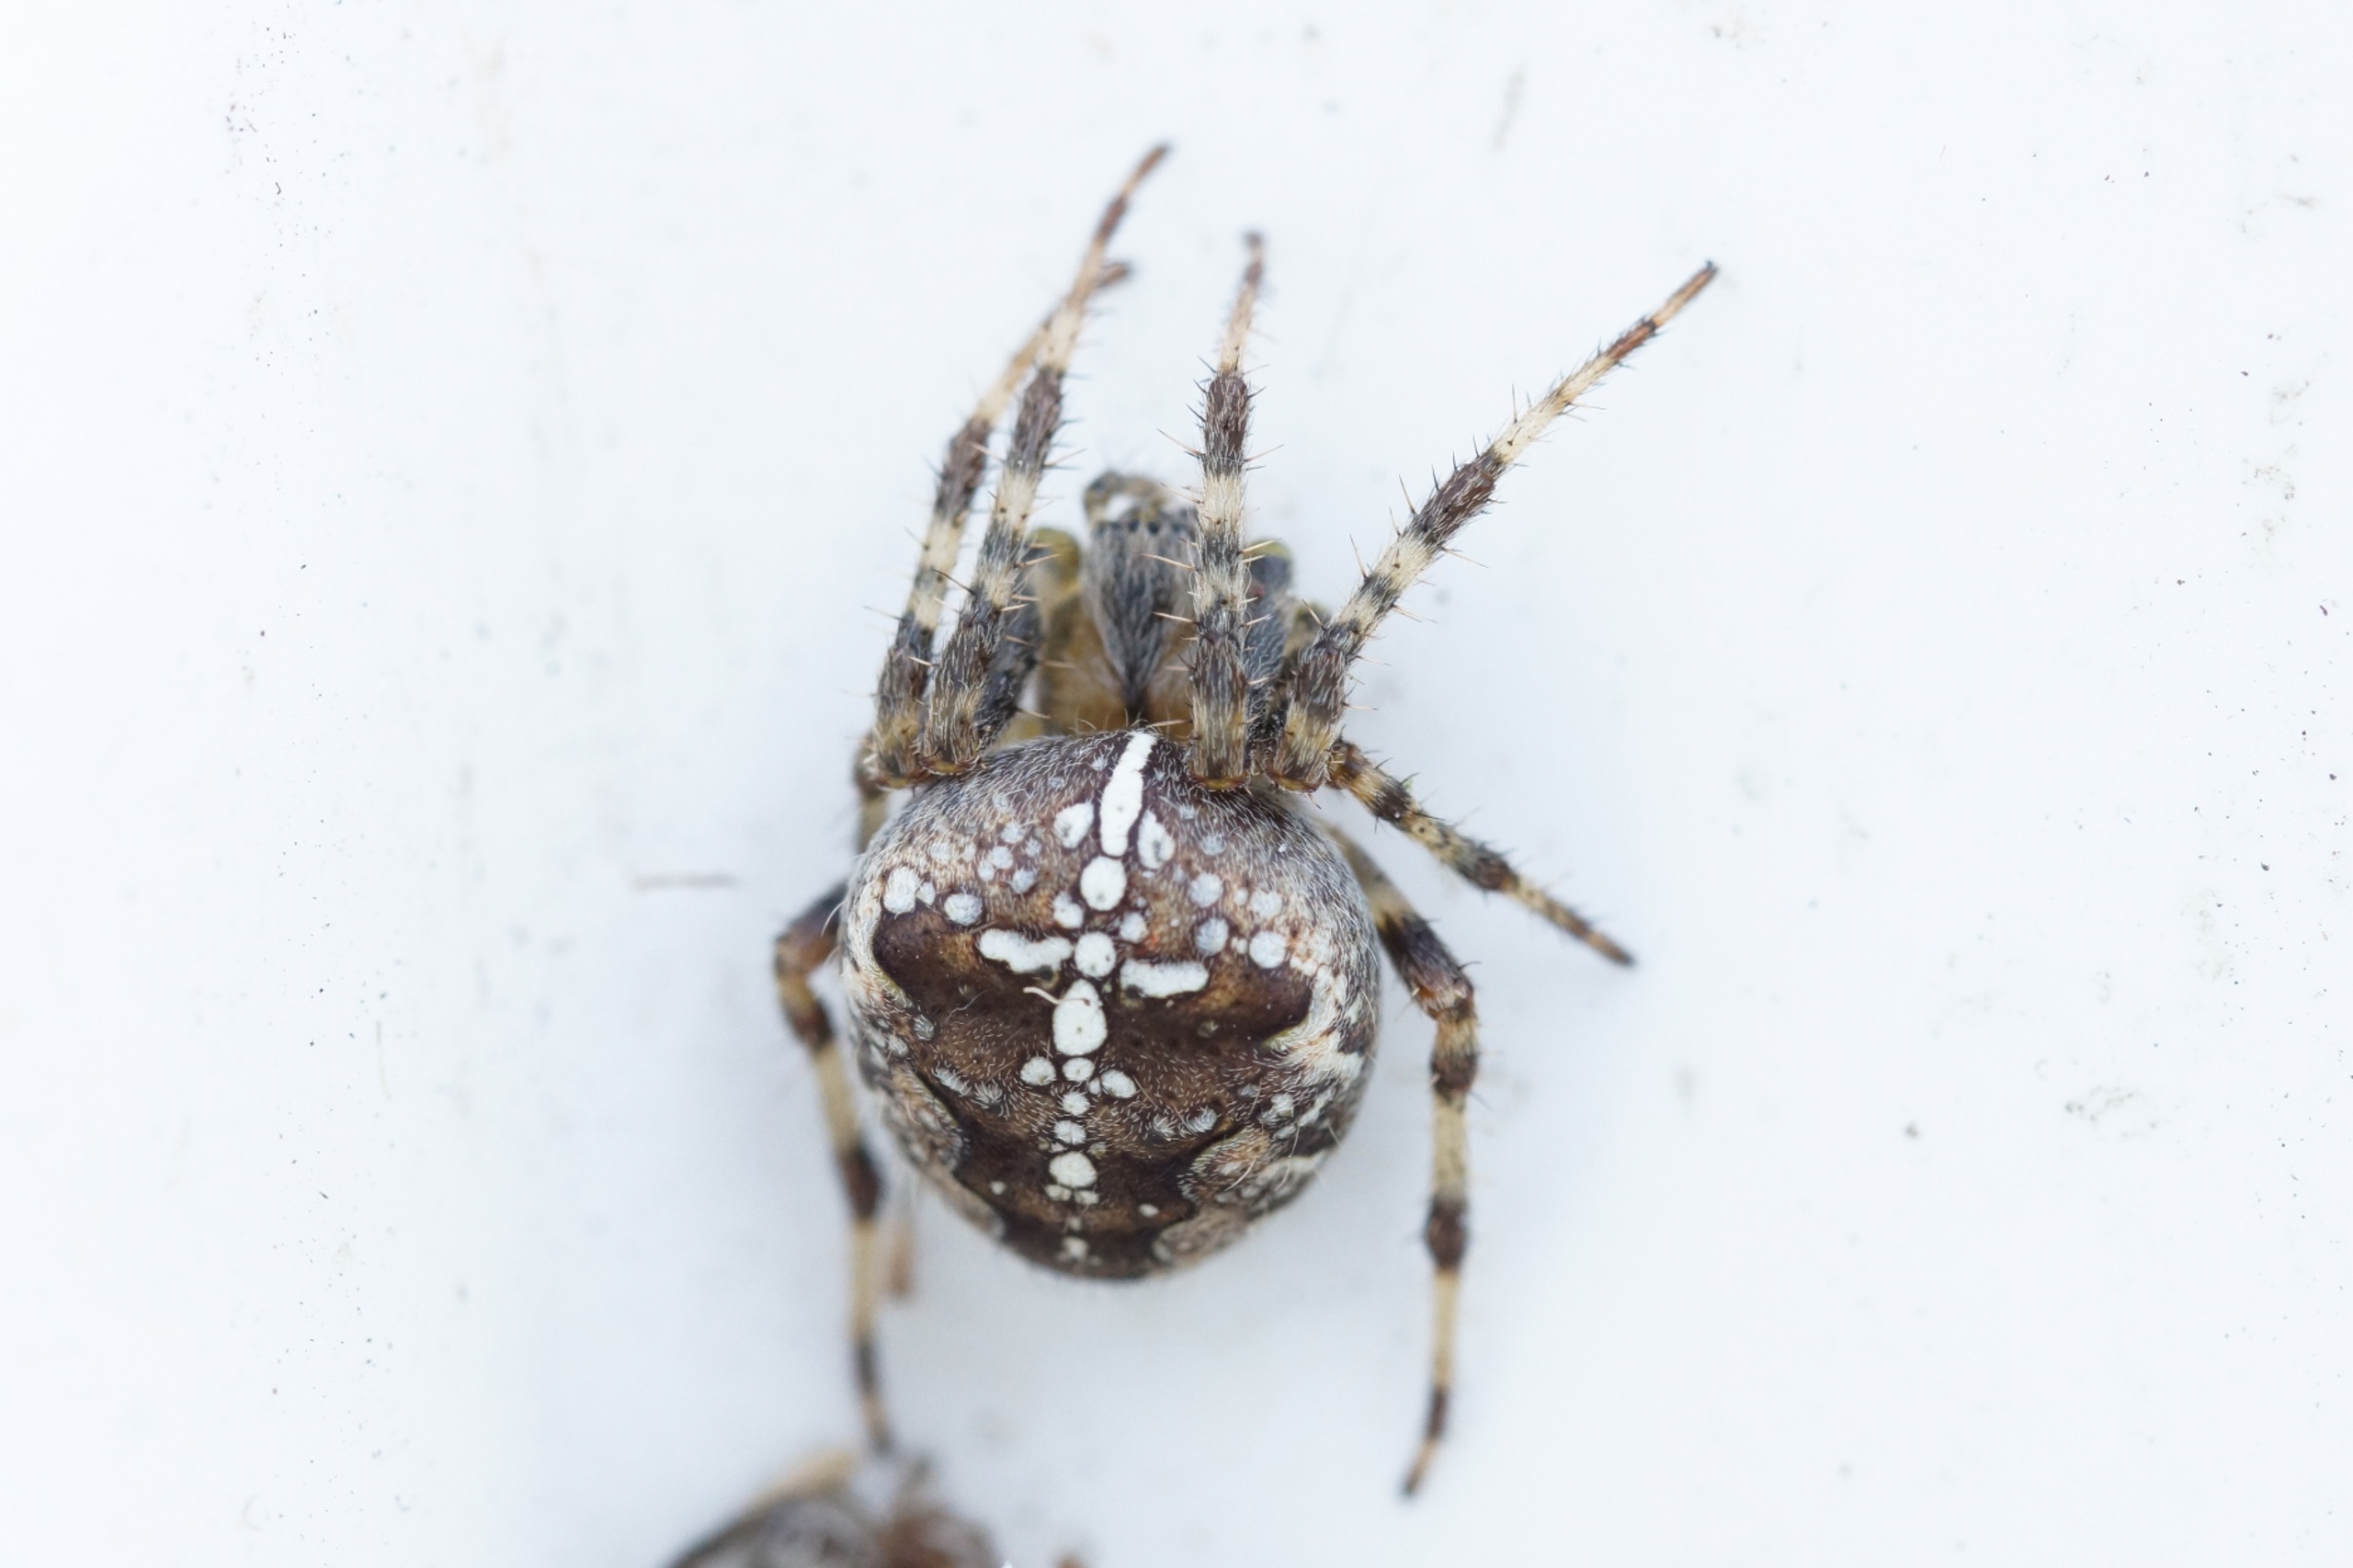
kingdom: Animalia
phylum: Arthropoda
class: Arachnida
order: Araneae
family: Araneidae
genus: Araneus
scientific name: Araneus diadematus
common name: Korsedderkop
